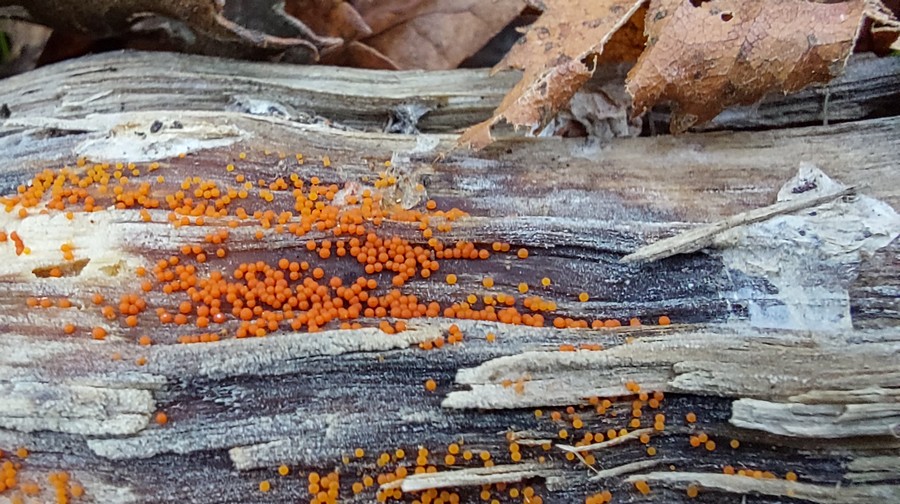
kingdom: Fungi
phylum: Ascomycota
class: Sordariomycetes
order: Hypocreales
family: Nectriaceae
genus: Hydropisphaera
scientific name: Hydropisphaera peziza
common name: skålformet gyldenkerne
